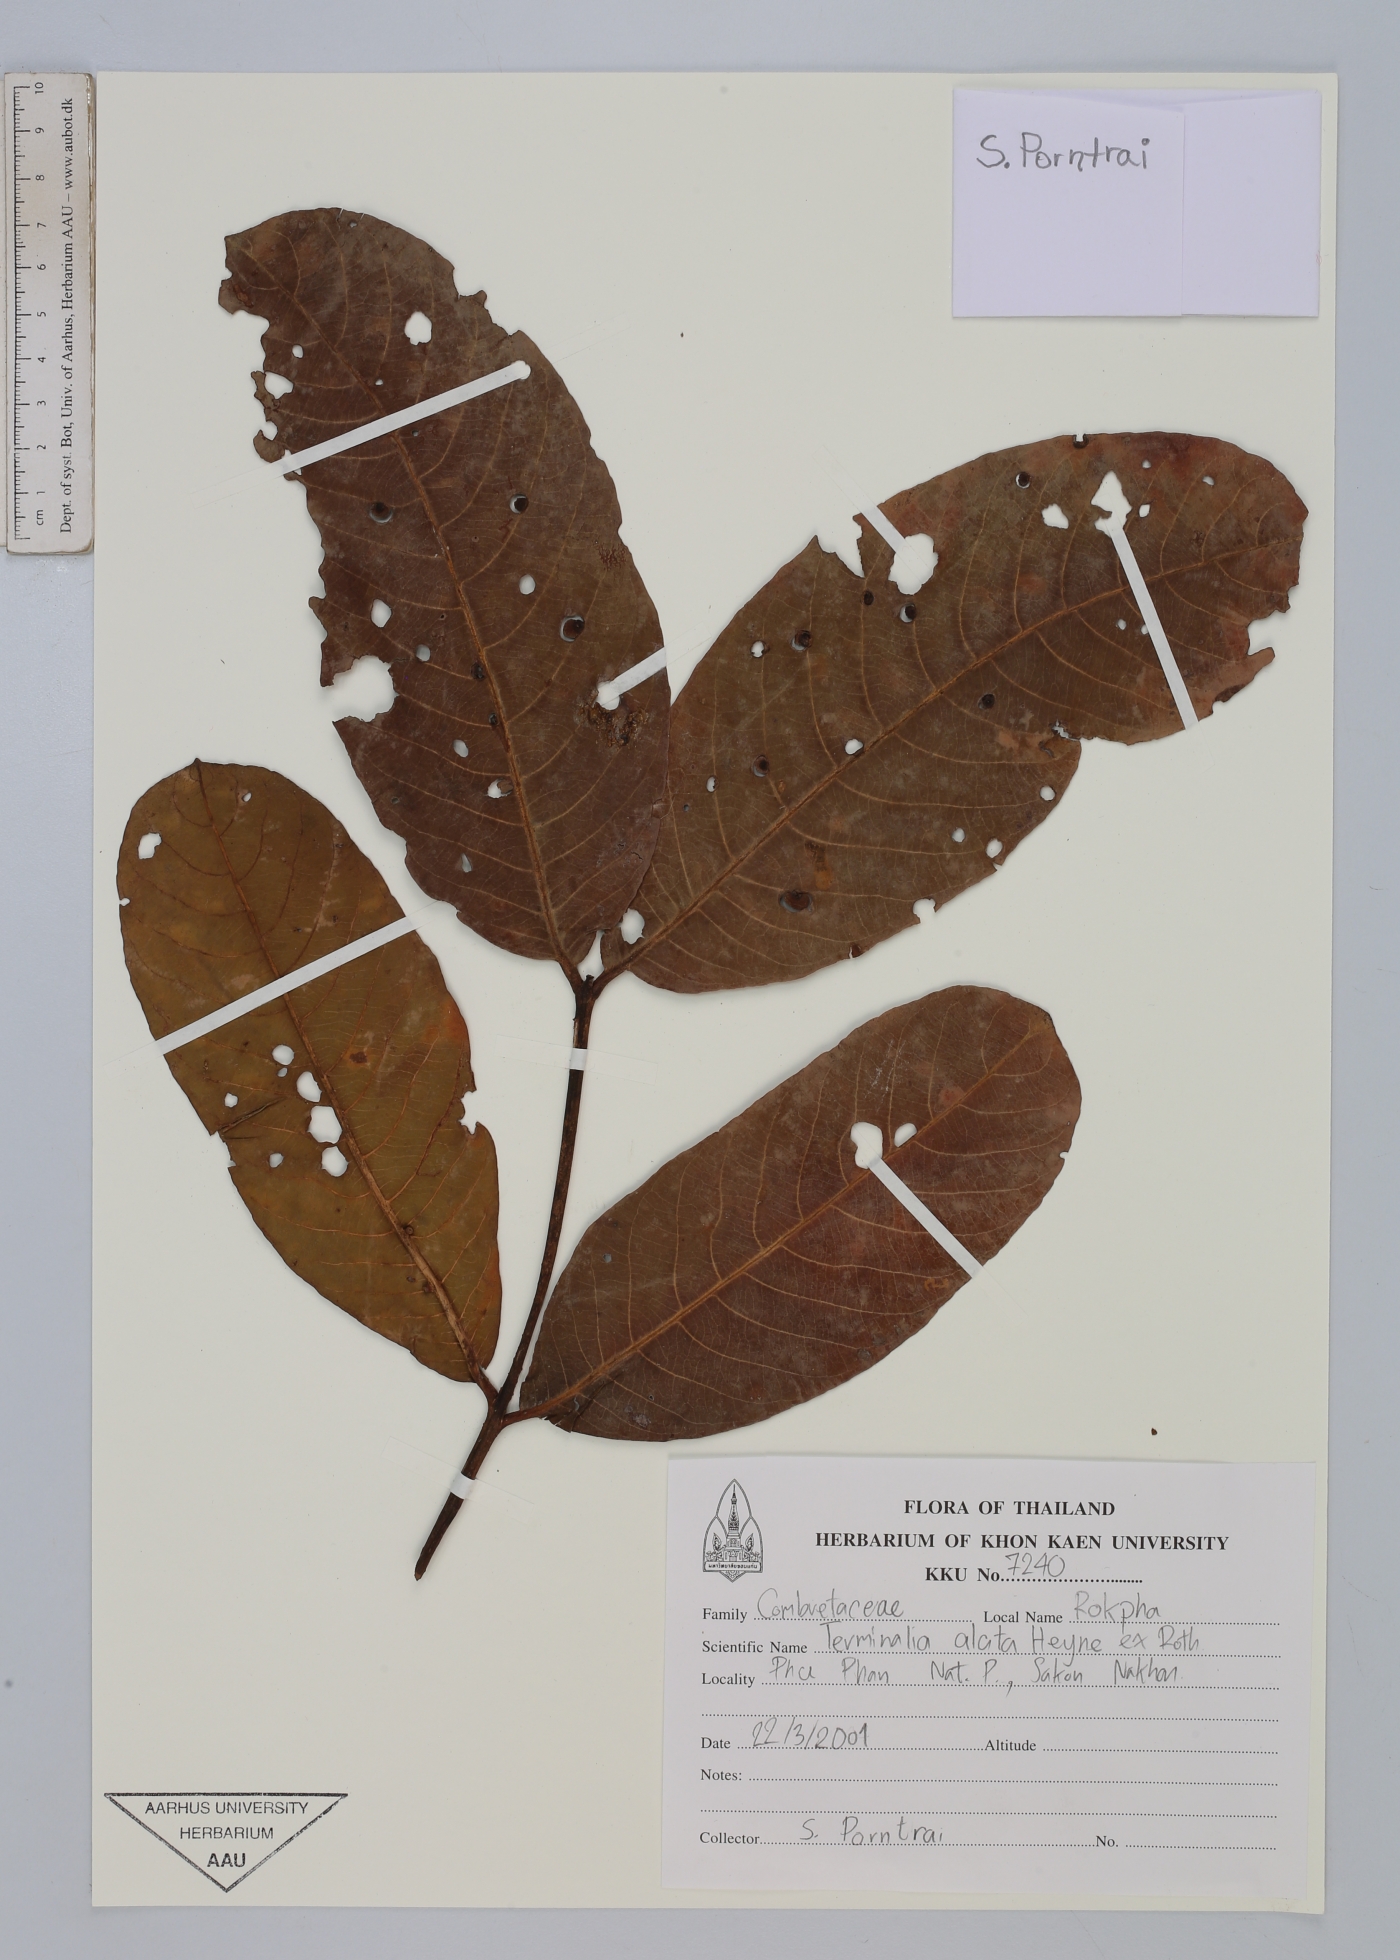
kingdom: Plantae
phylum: Tracheophyta
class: Magnoliopsida
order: Myrtales
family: Combretaceae
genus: Terminalia
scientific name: Terminalia elliptica
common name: Indian-laurel
